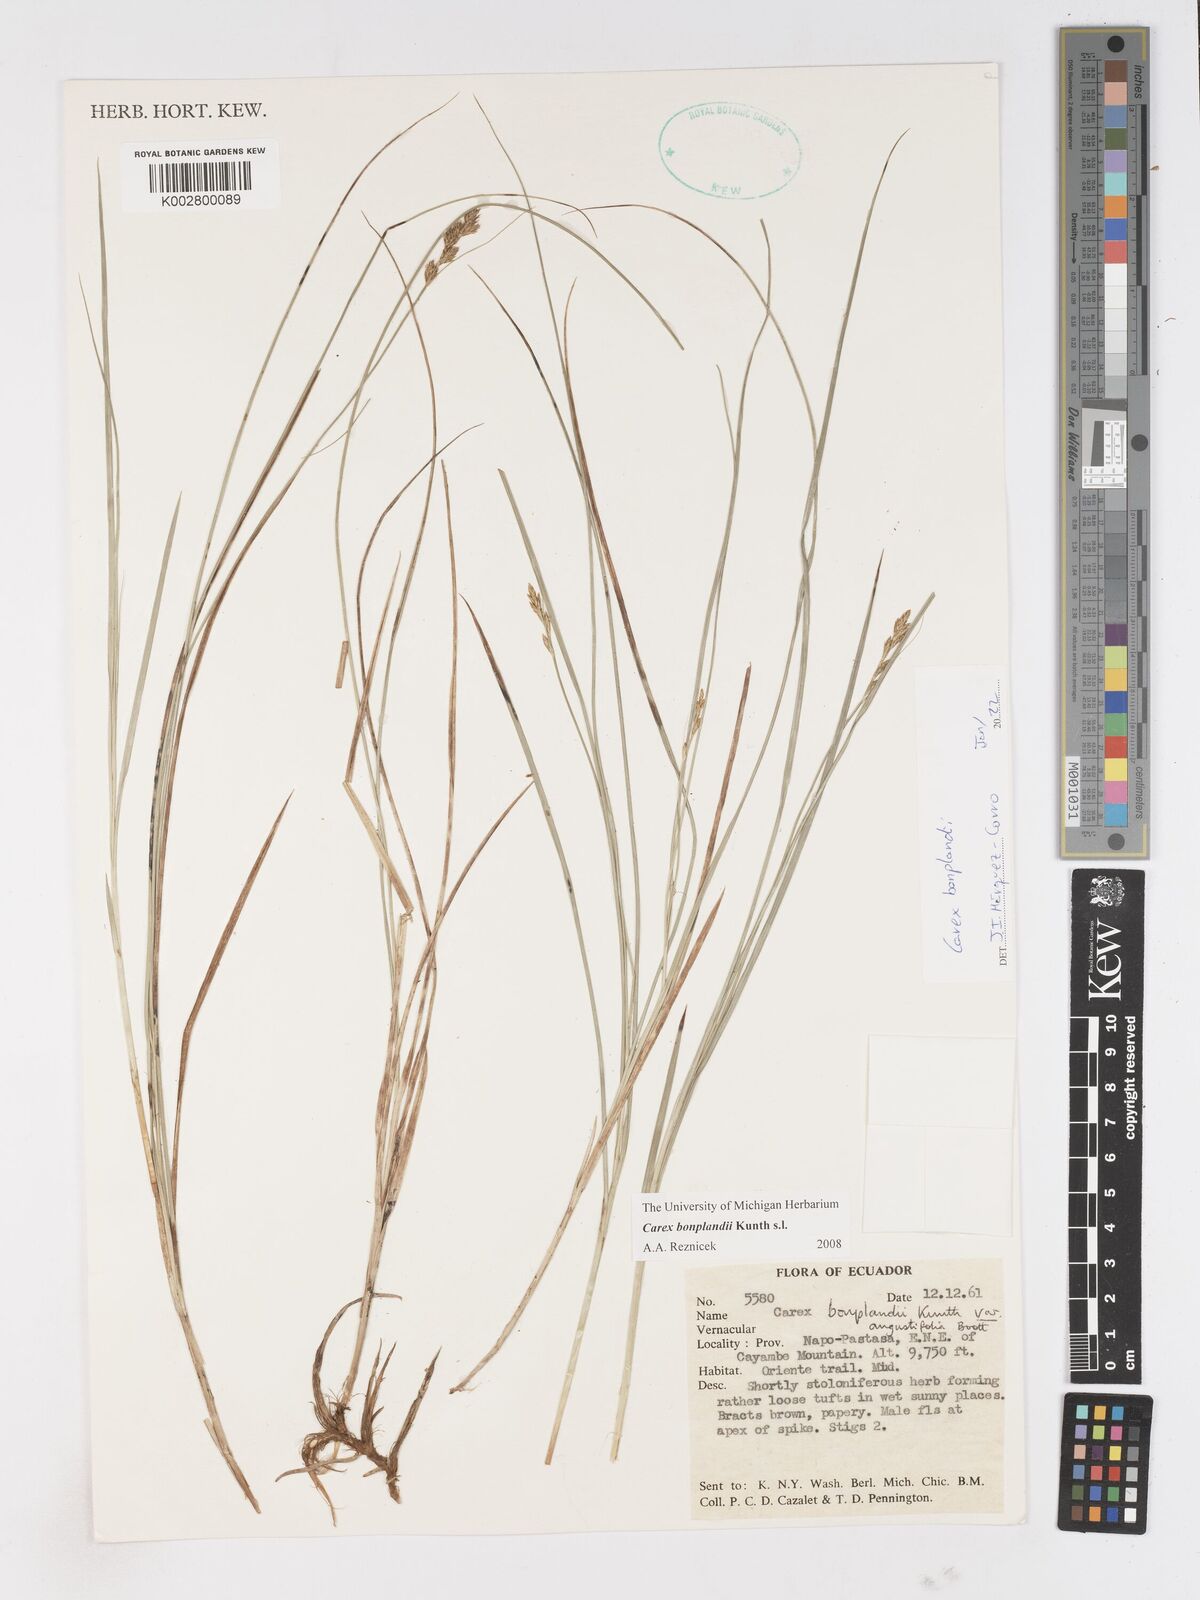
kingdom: Plantae
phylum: Tracheophyta
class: Liliopsida
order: Poales
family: Cyperaceae
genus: Carex
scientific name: Carex bonplandii
